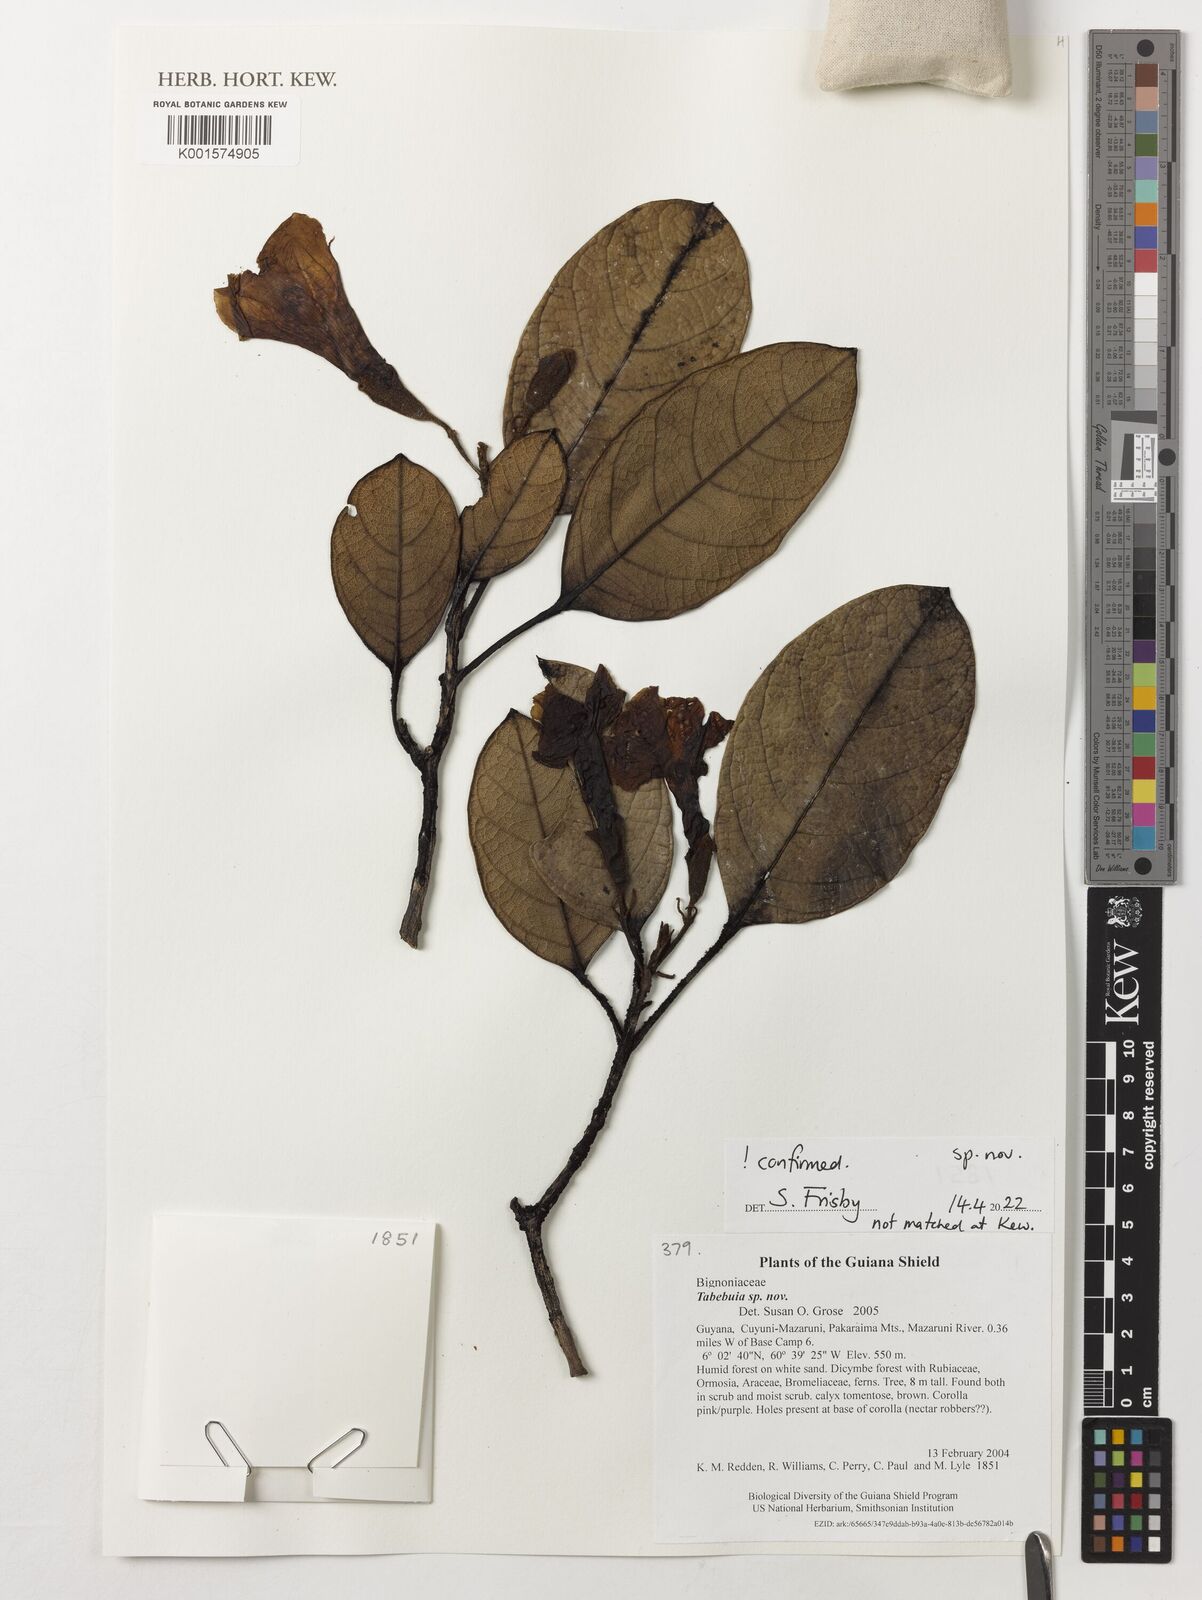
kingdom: Plantae
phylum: Tracheophyta
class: Magnoliopsida
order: Lamiales
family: Bignoniaceae
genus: Tabebuia
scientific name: Tabebuia
